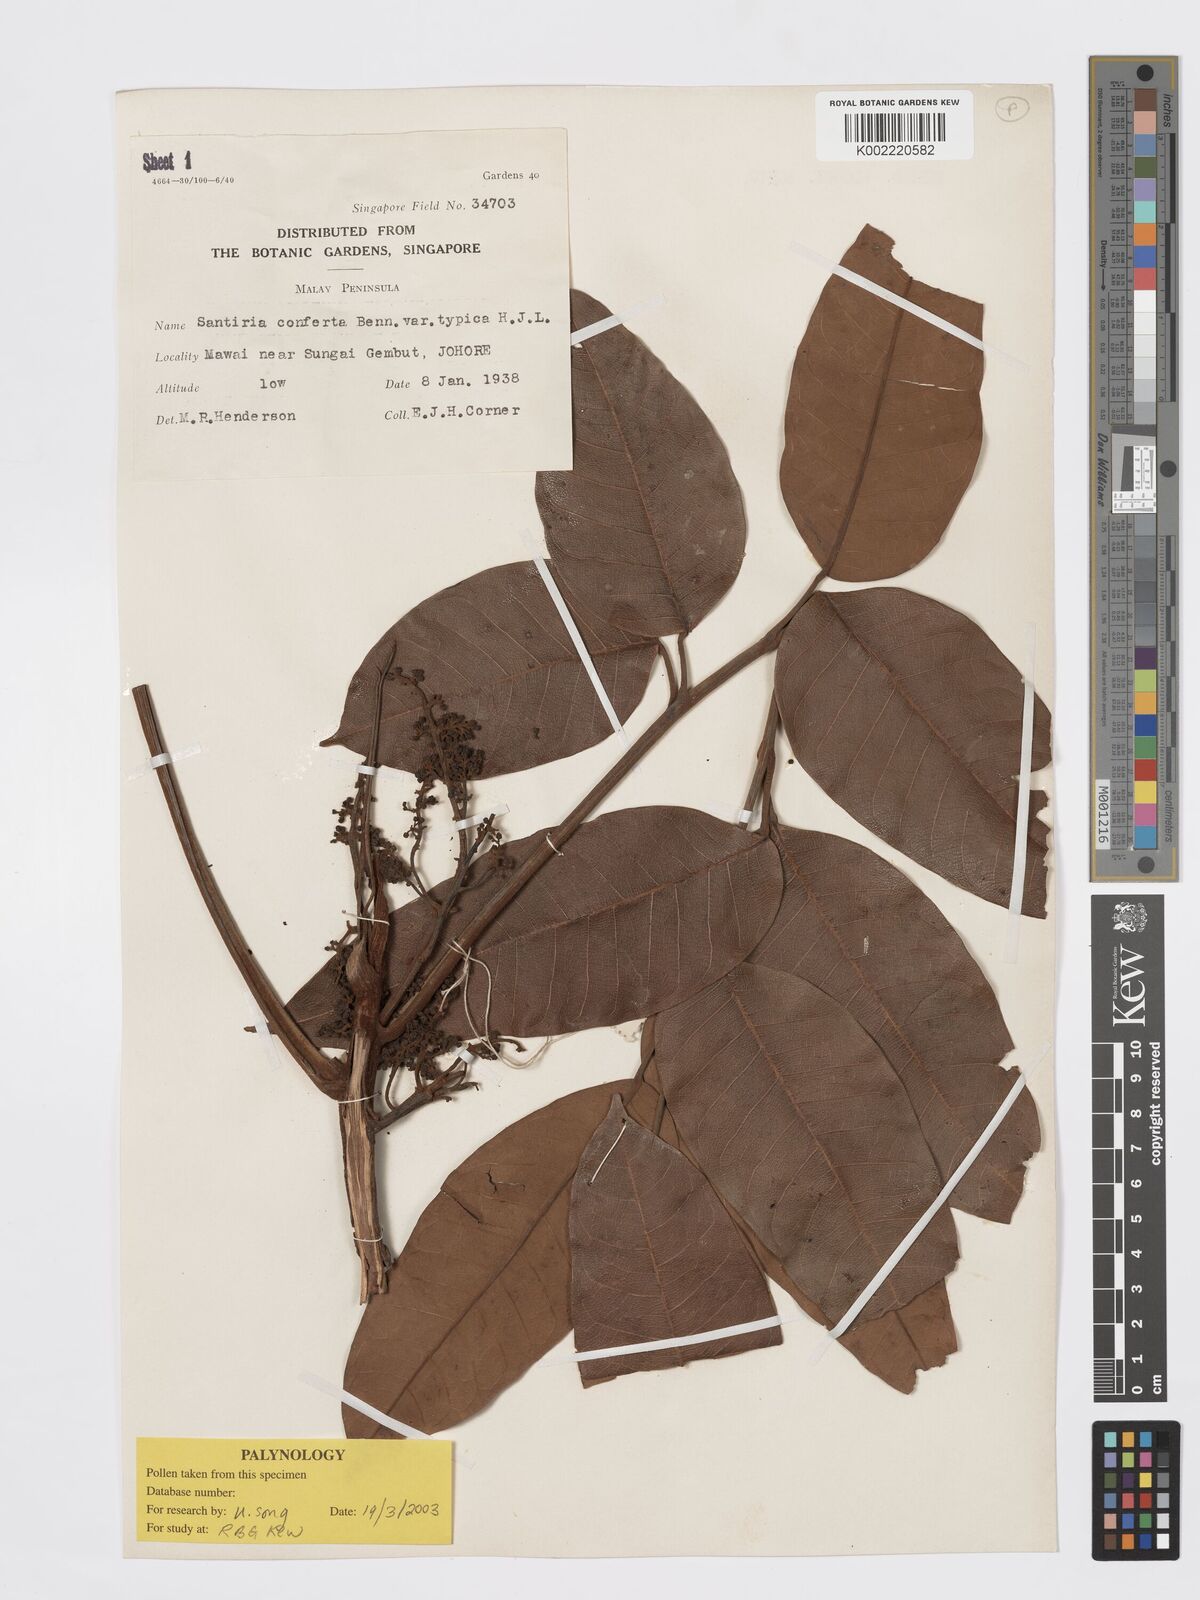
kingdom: Plantae
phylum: Tracheophyta
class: Magnoliopsida
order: Sapindales
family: Burseraceae
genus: Santiria
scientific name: Santiria conferta
